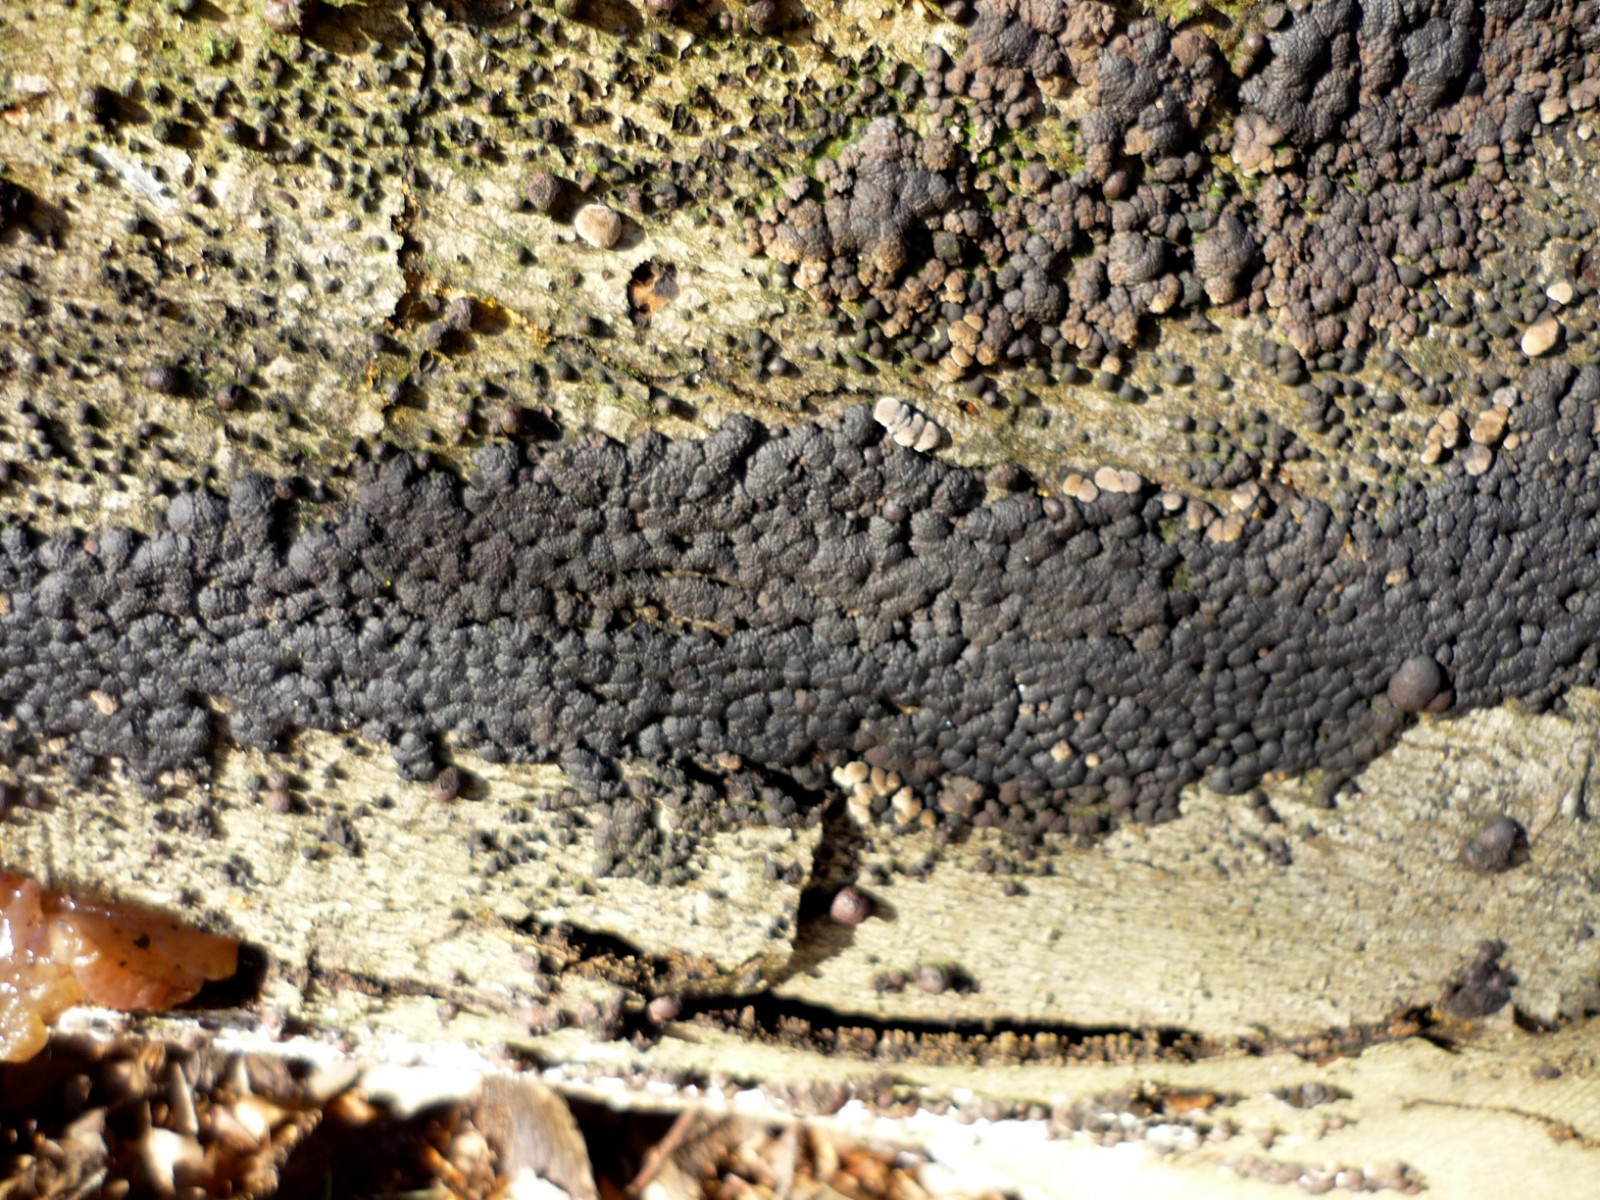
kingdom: Fungi
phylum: Ascomycota
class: Sordariomycetes
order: Xylariales
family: Hypoxylaceae
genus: Jackrogersella
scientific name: Jackrogersella cohaerens
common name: sammenflydende kulbær
